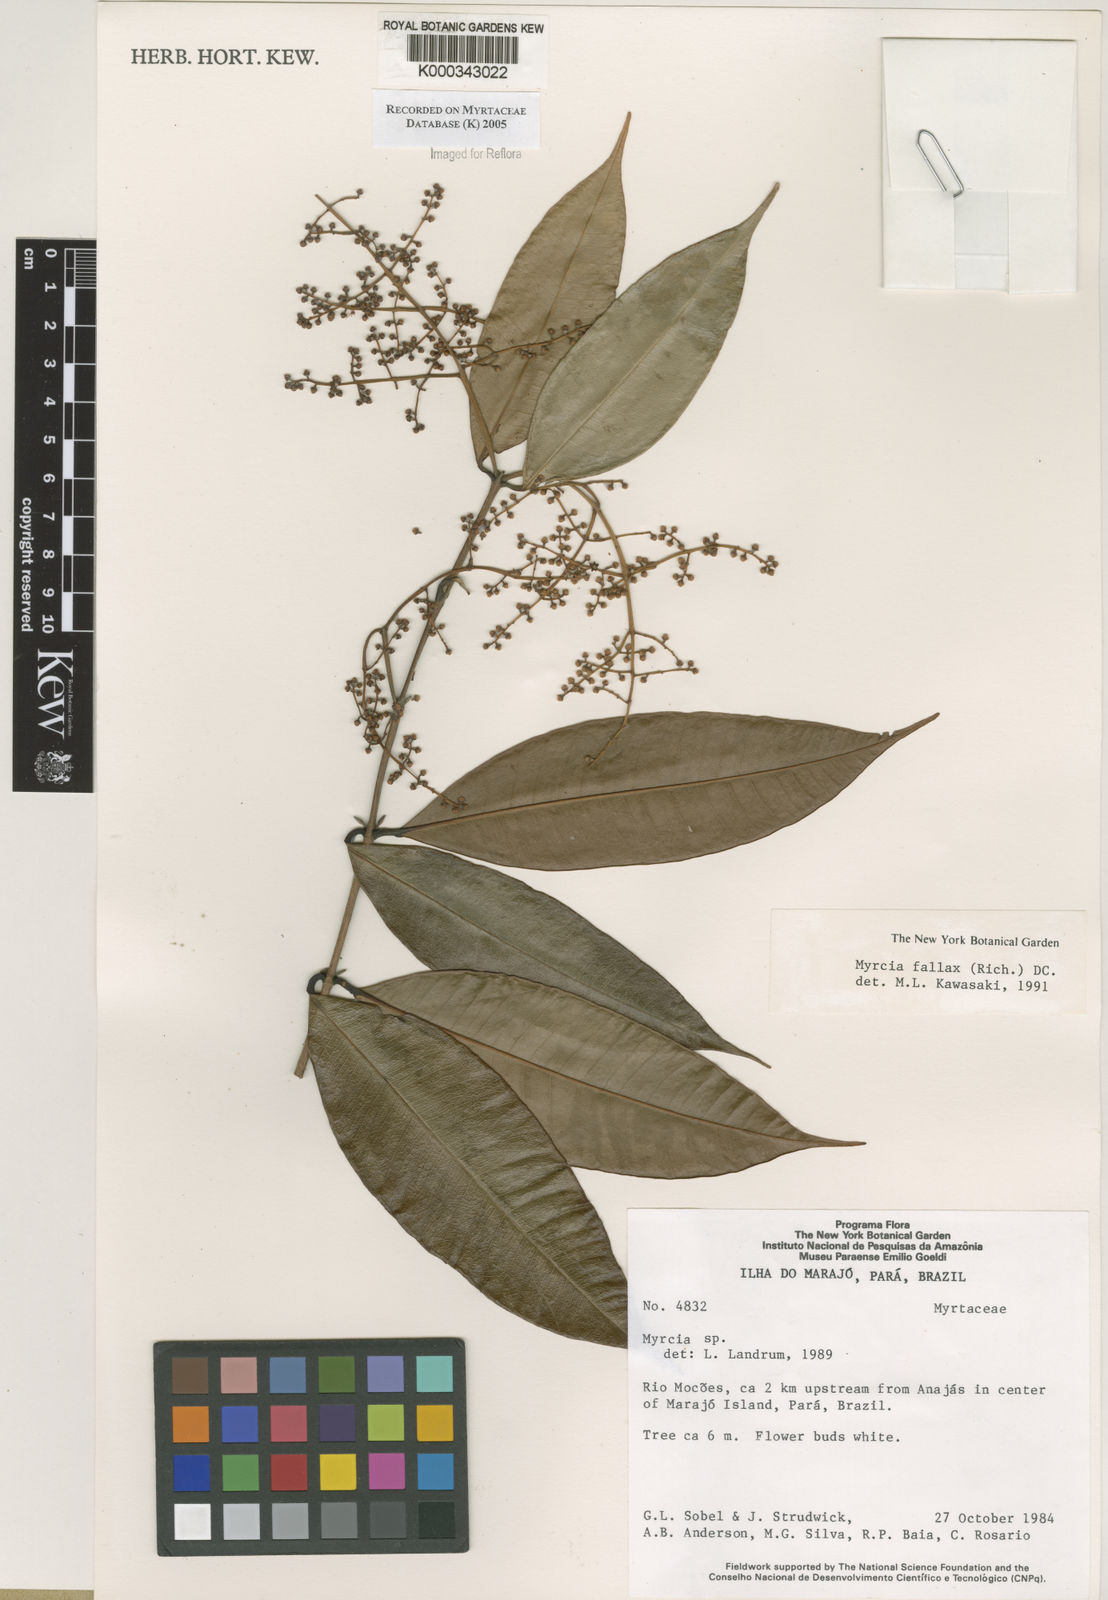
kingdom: Plantae
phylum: Tracheophyta
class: Magnoliopsida
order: Myrtales
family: Myrtaceae
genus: Myrcia
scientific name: Myrcia splendens
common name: Surinam cherry
